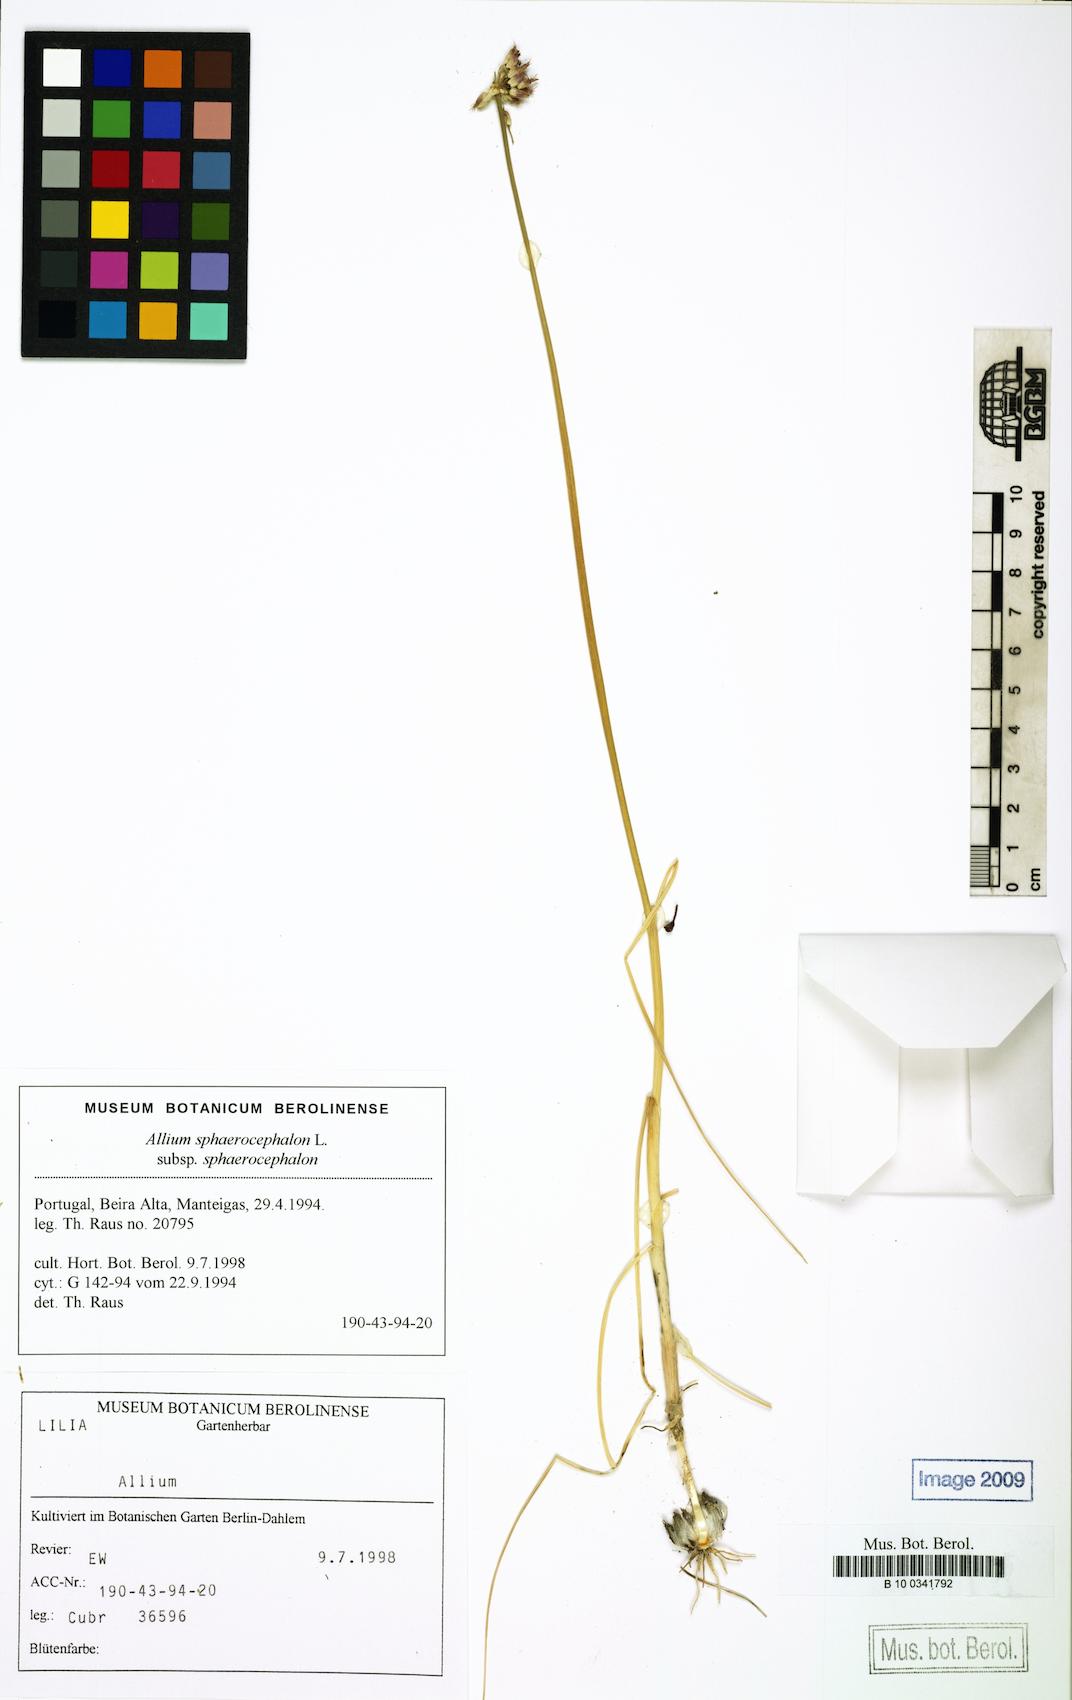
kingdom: Plantae
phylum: Tracheophyta
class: Liliopsida
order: Asparagales
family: Amaryllidaceae
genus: Allium
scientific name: Allium sphaerocephalon
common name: Round-headed leek
